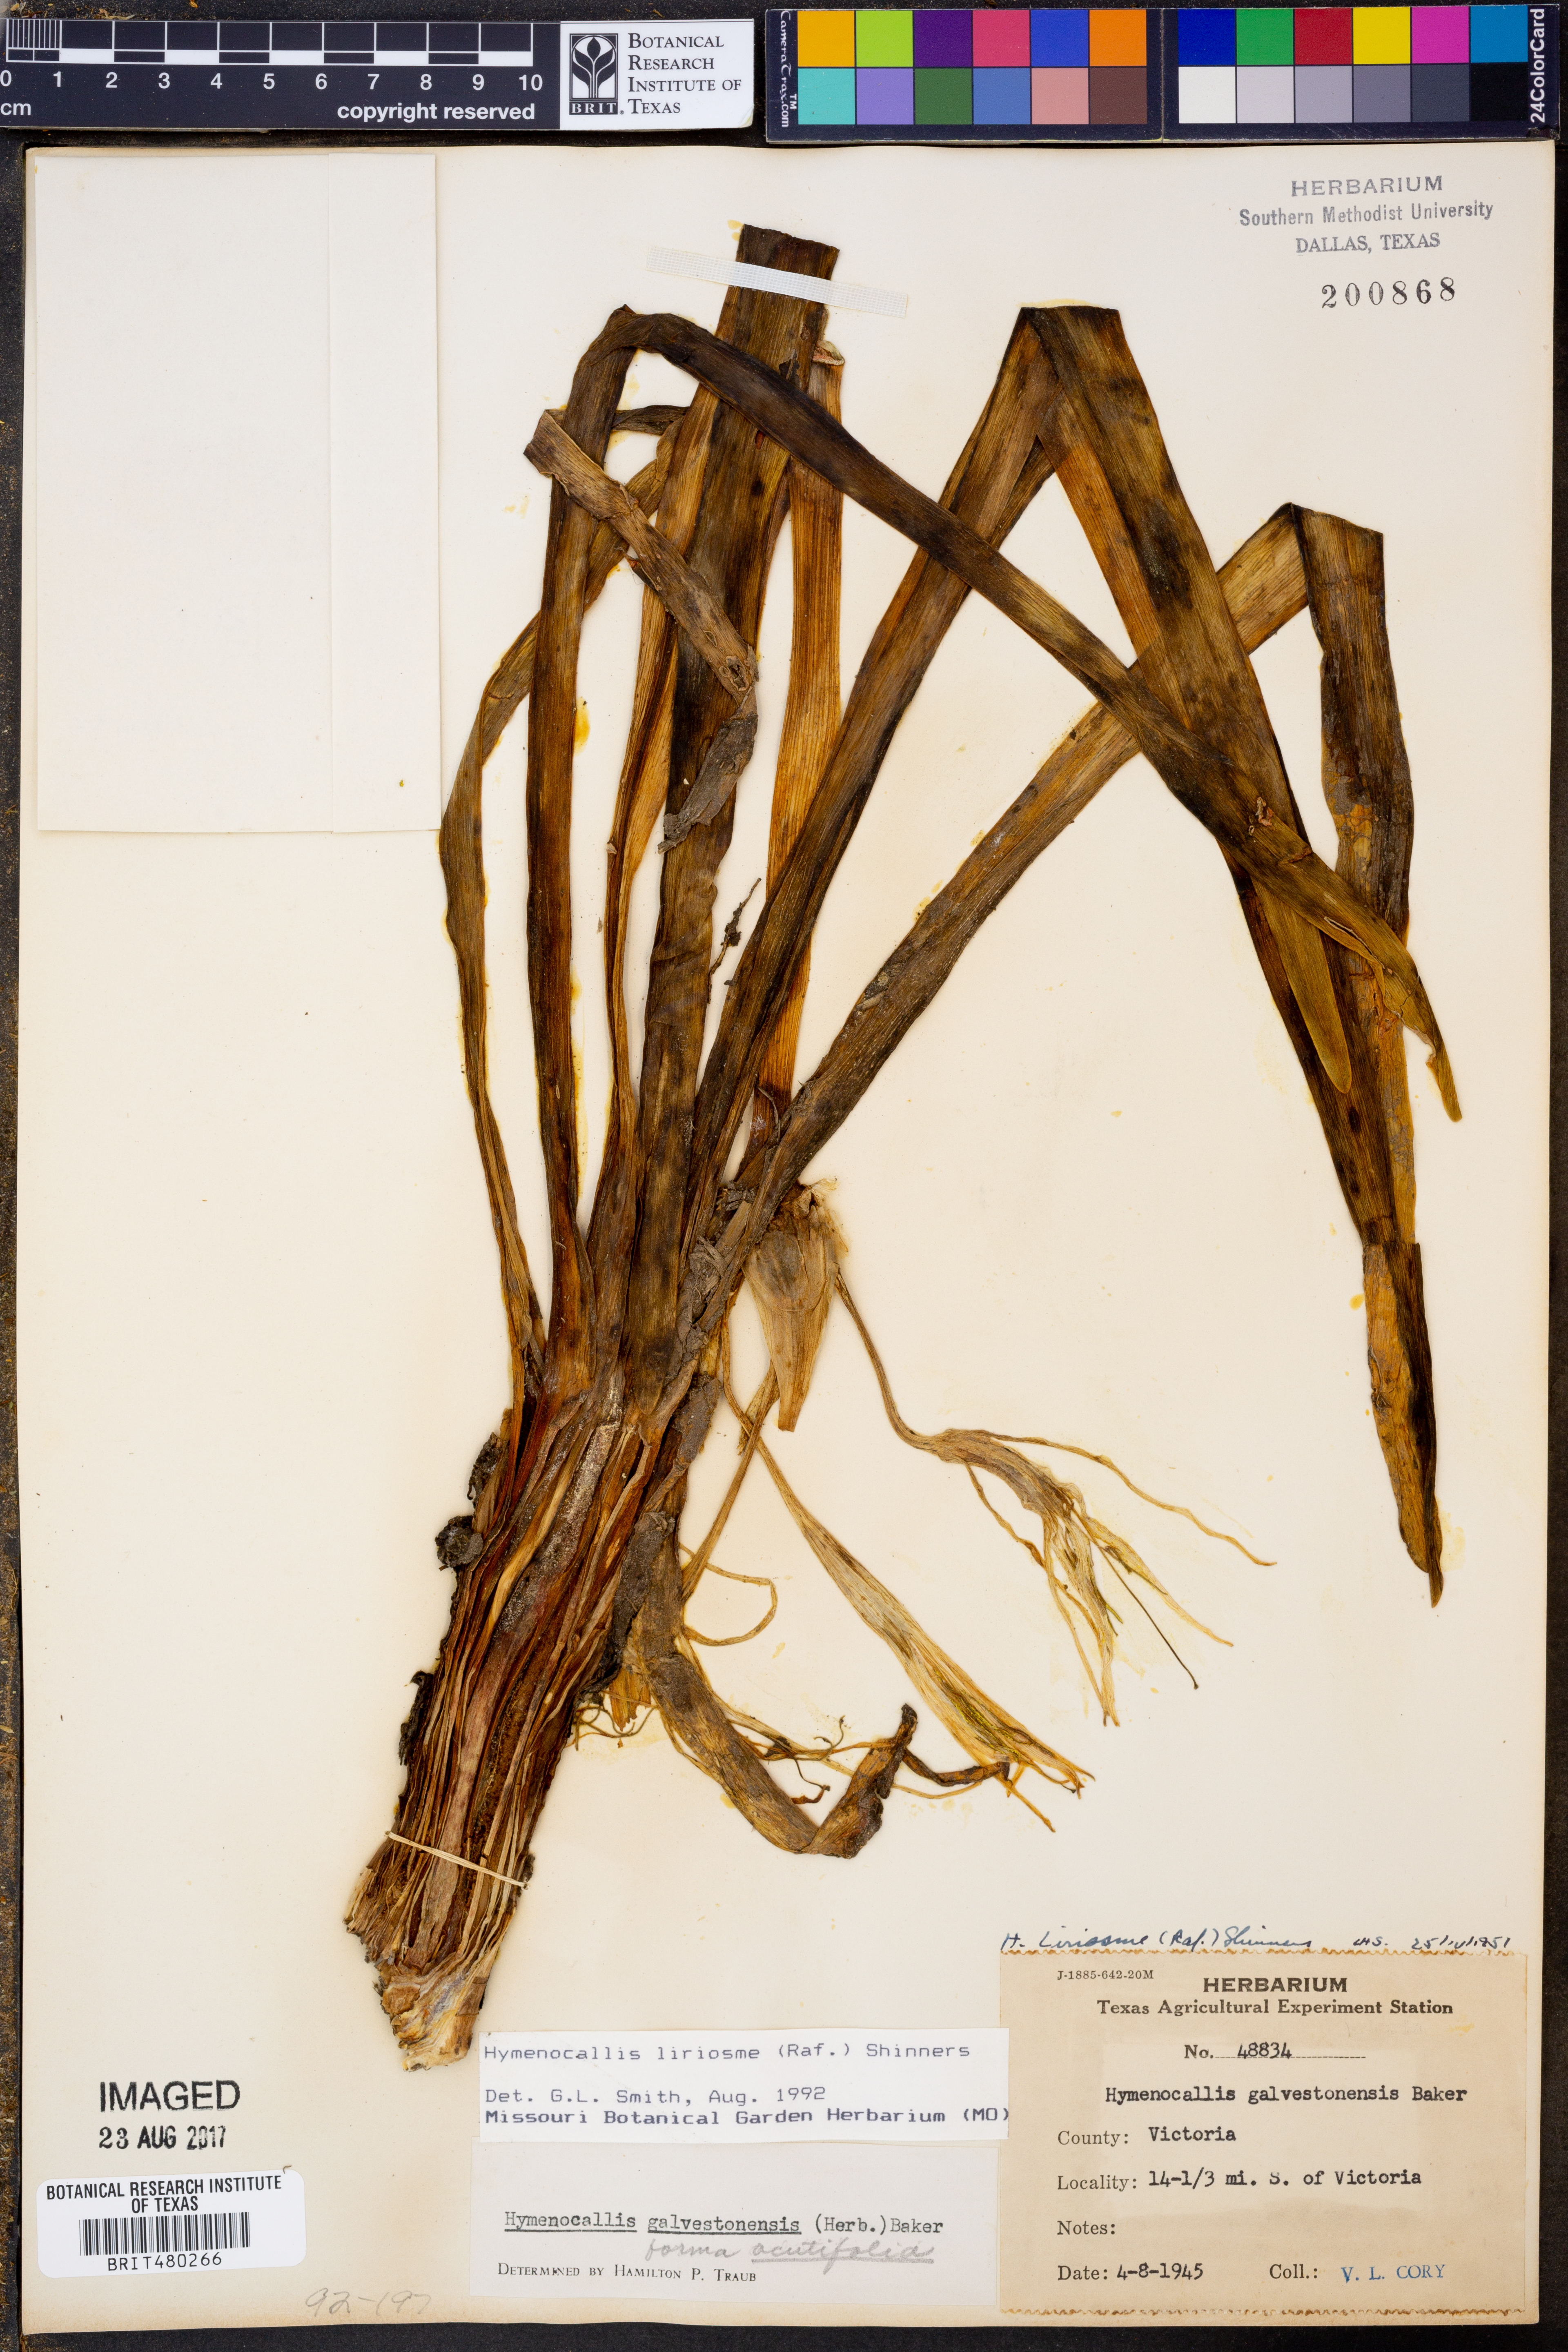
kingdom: Plantae
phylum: Tracheophyta
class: Liliopsida
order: Asparagales
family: Amaryllidaceae
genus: Hymenocallis
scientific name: Hymenocallis liriosme
